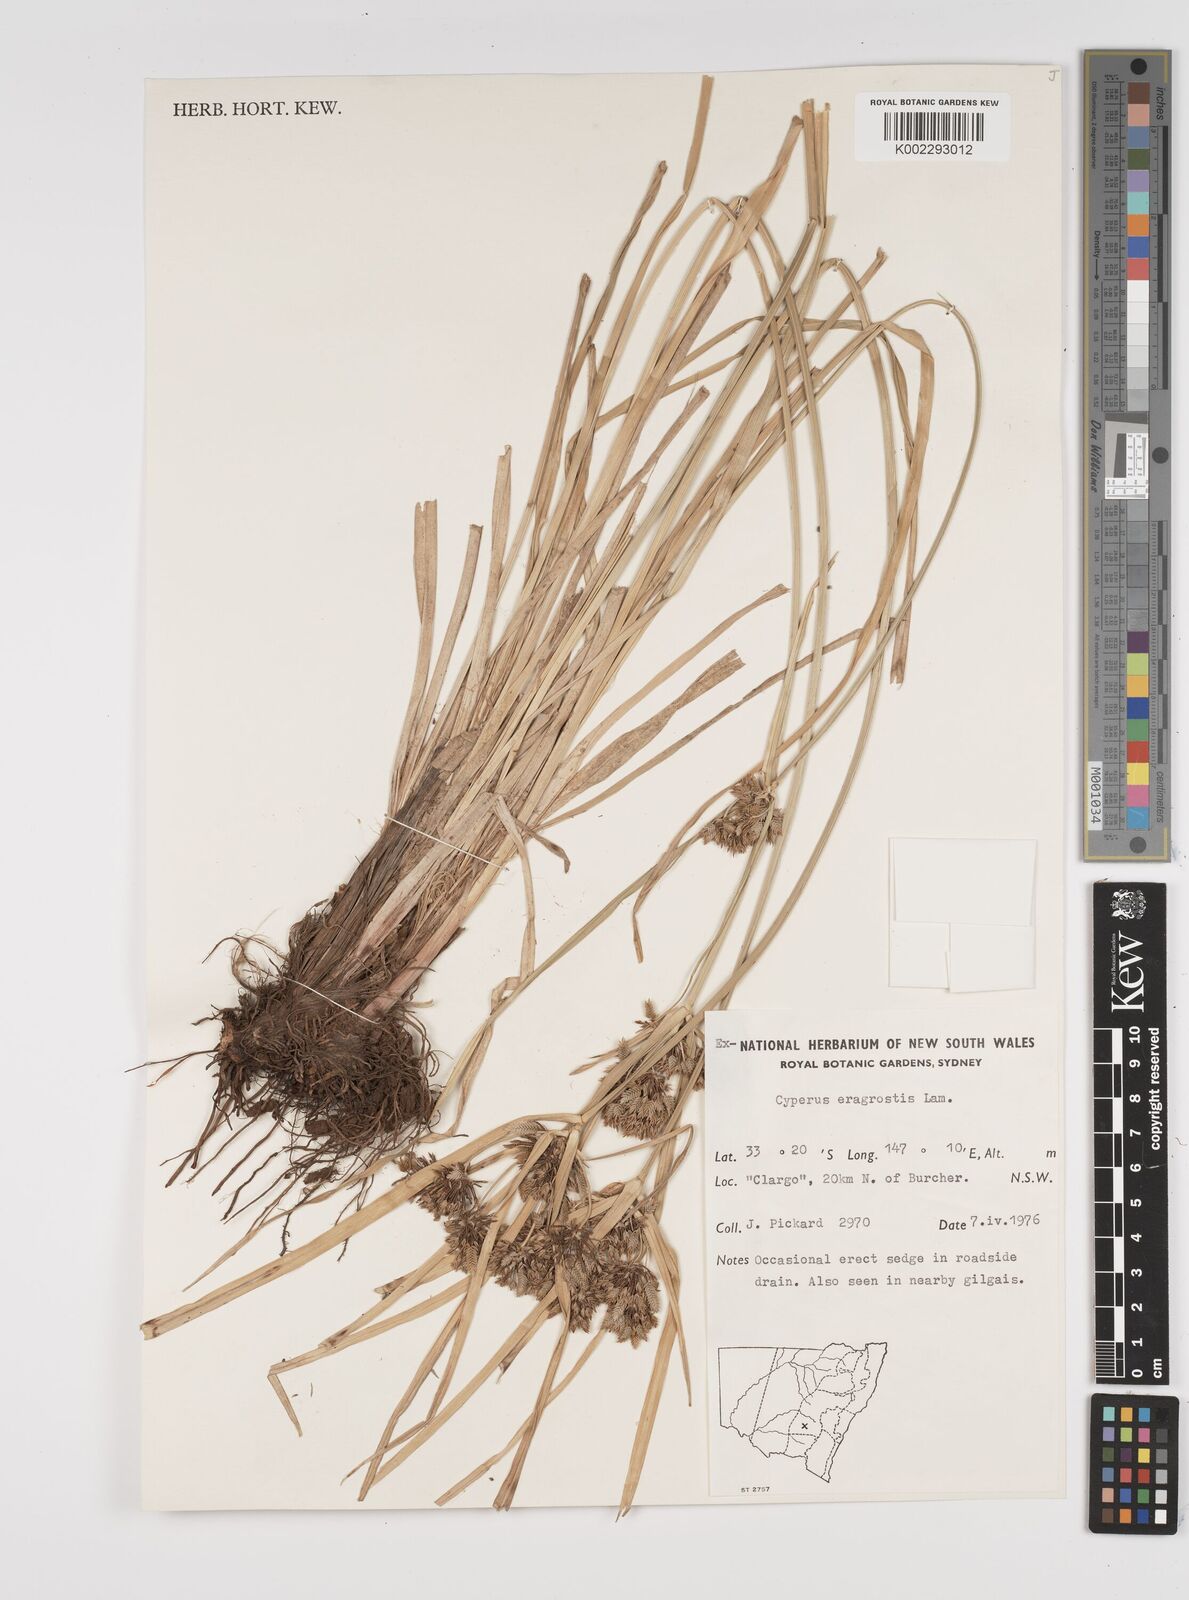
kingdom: Plantae
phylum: Tracheophyta
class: Liliopsida
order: Poales
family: Cyperaceae
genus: Cyperus
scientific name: Cyperus eragrostis
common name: Tall flatsedge
